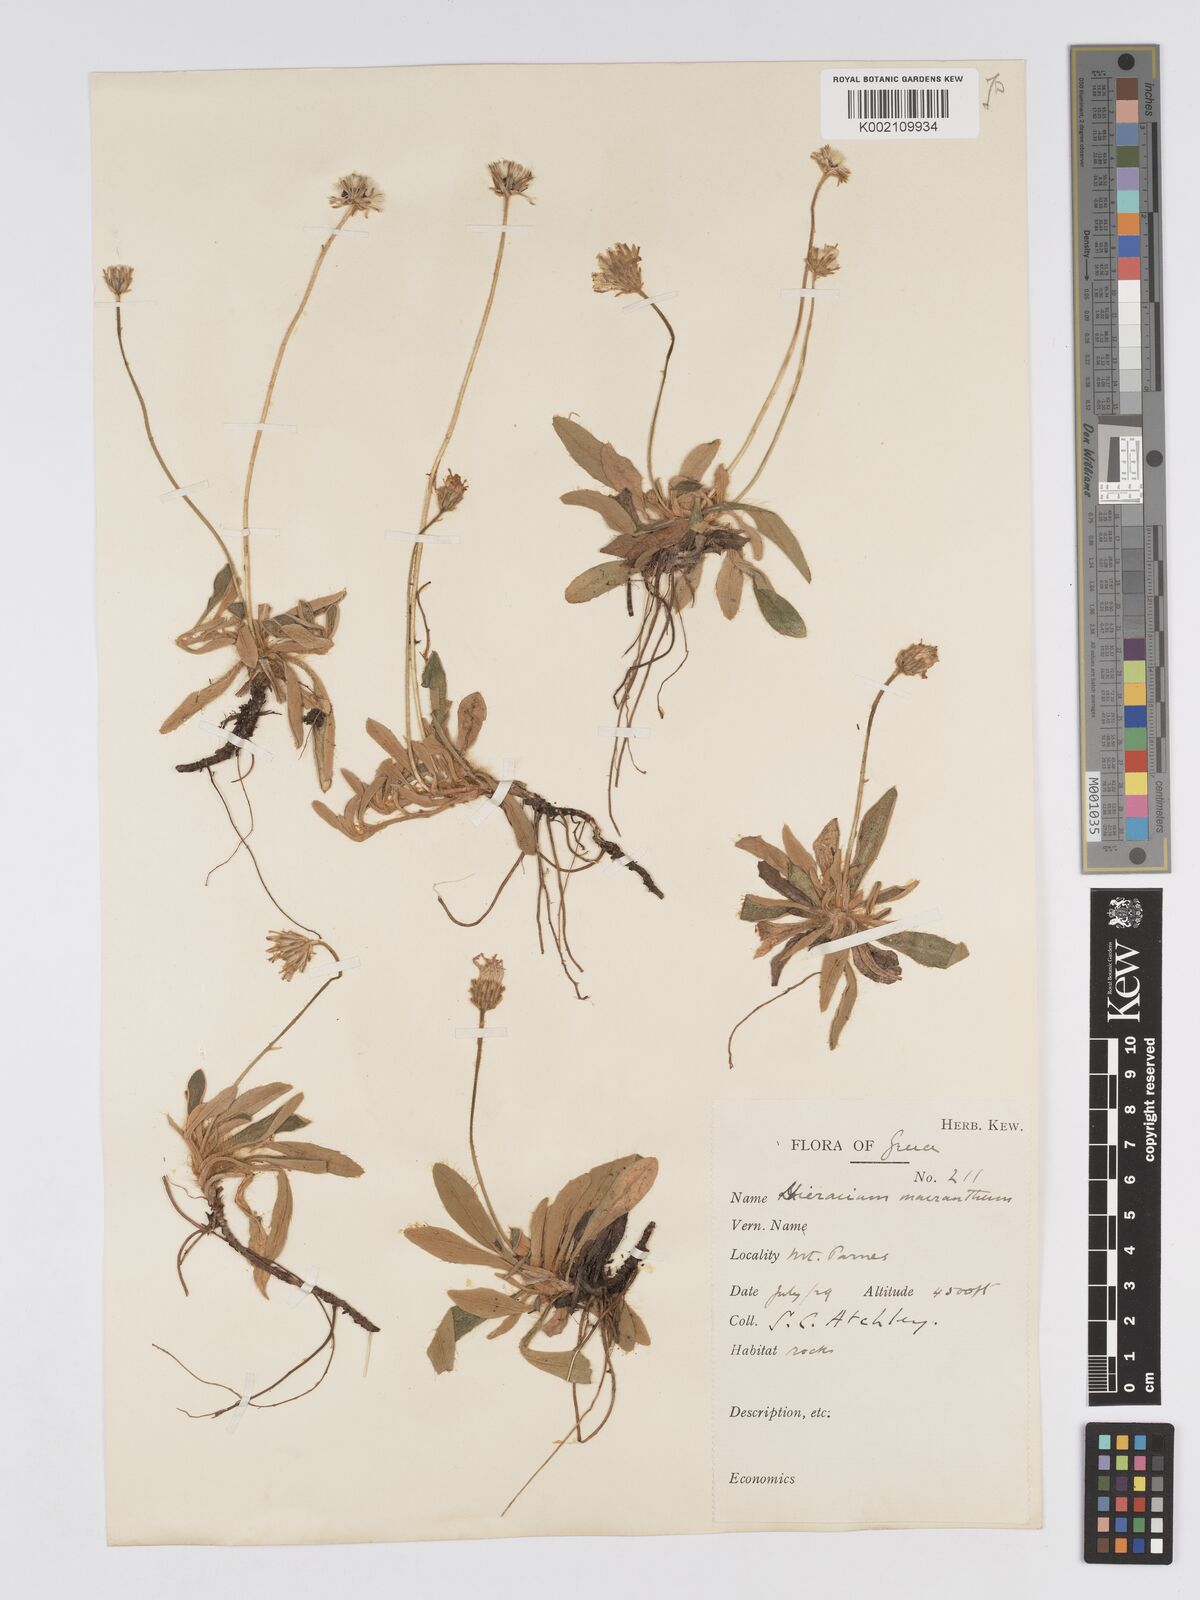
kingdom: Plantae
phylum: Tracheophyta
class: Magnoliopsida
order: Asterales
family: Asteraceae
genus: Pilosella
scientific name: Pilosella hoppeana
